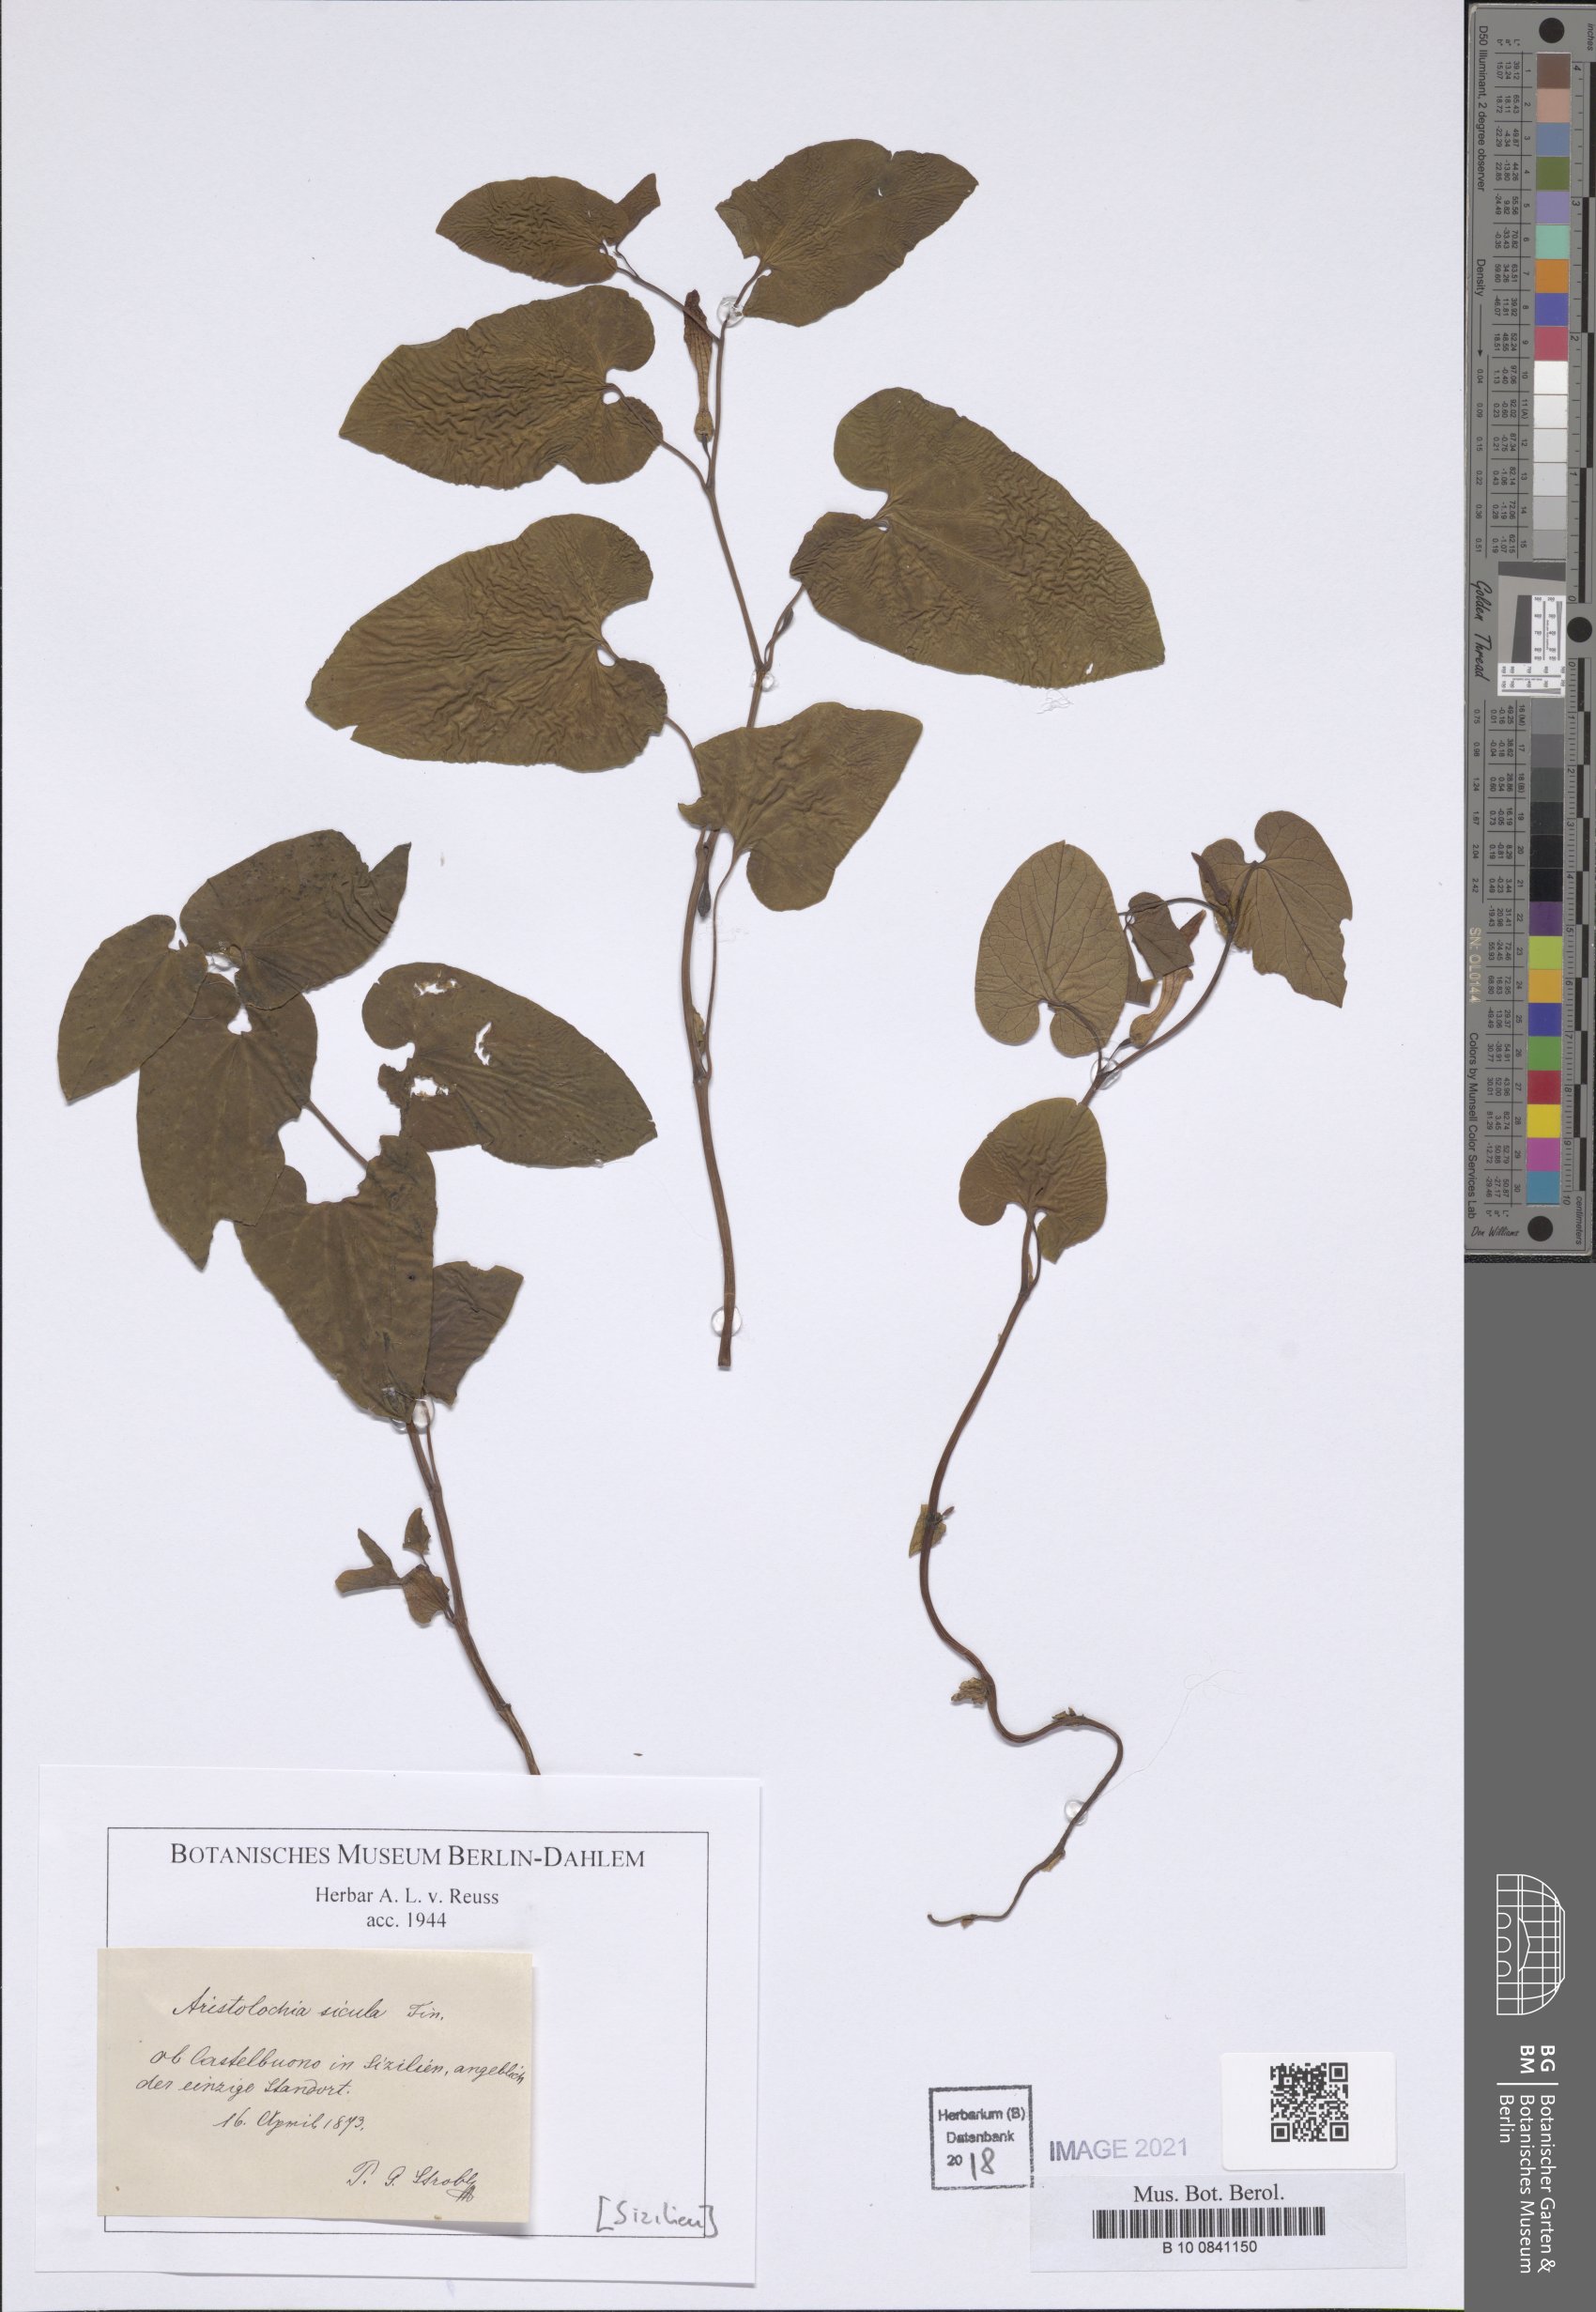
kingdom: Plantae
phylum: Tracheophyta
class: Magnoliopsida
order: Piperales
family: Aristolochiaceae
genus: Aristolochia
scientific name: Aristolochia sicula
